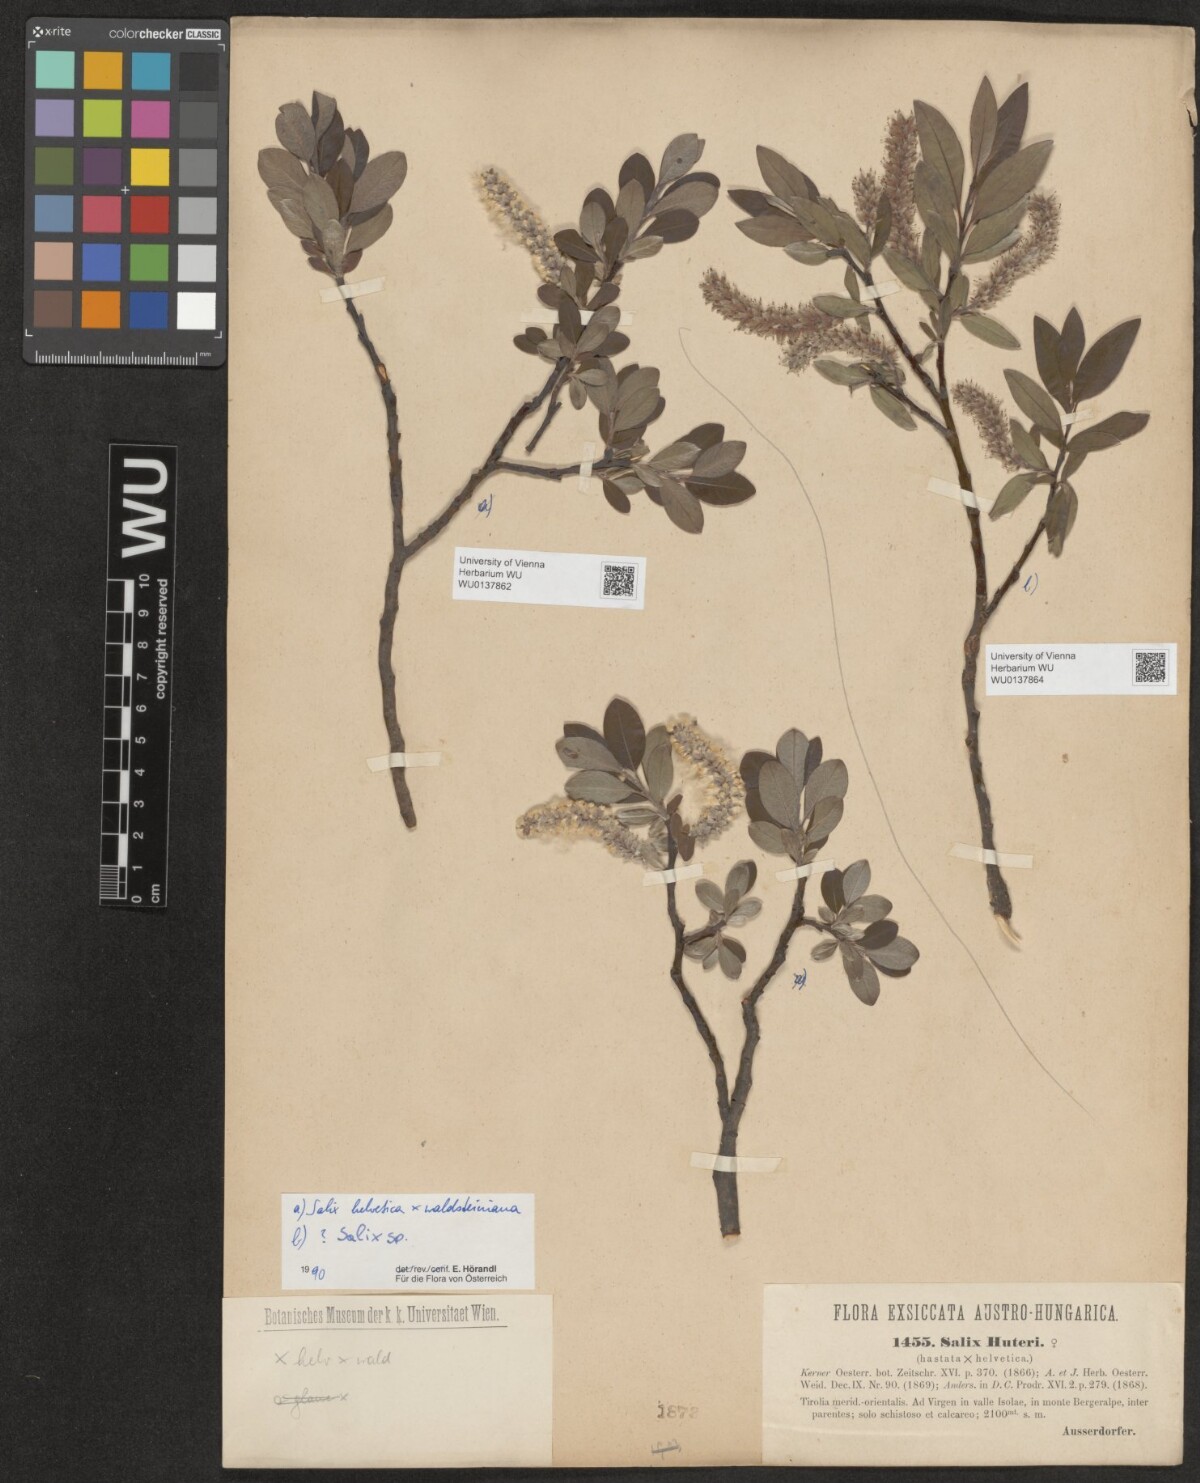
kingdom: Plantae
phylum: Tracheophyta
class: Magnoliopsida
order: Malpighiales
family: Salicaceae
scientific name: Salicaceae
